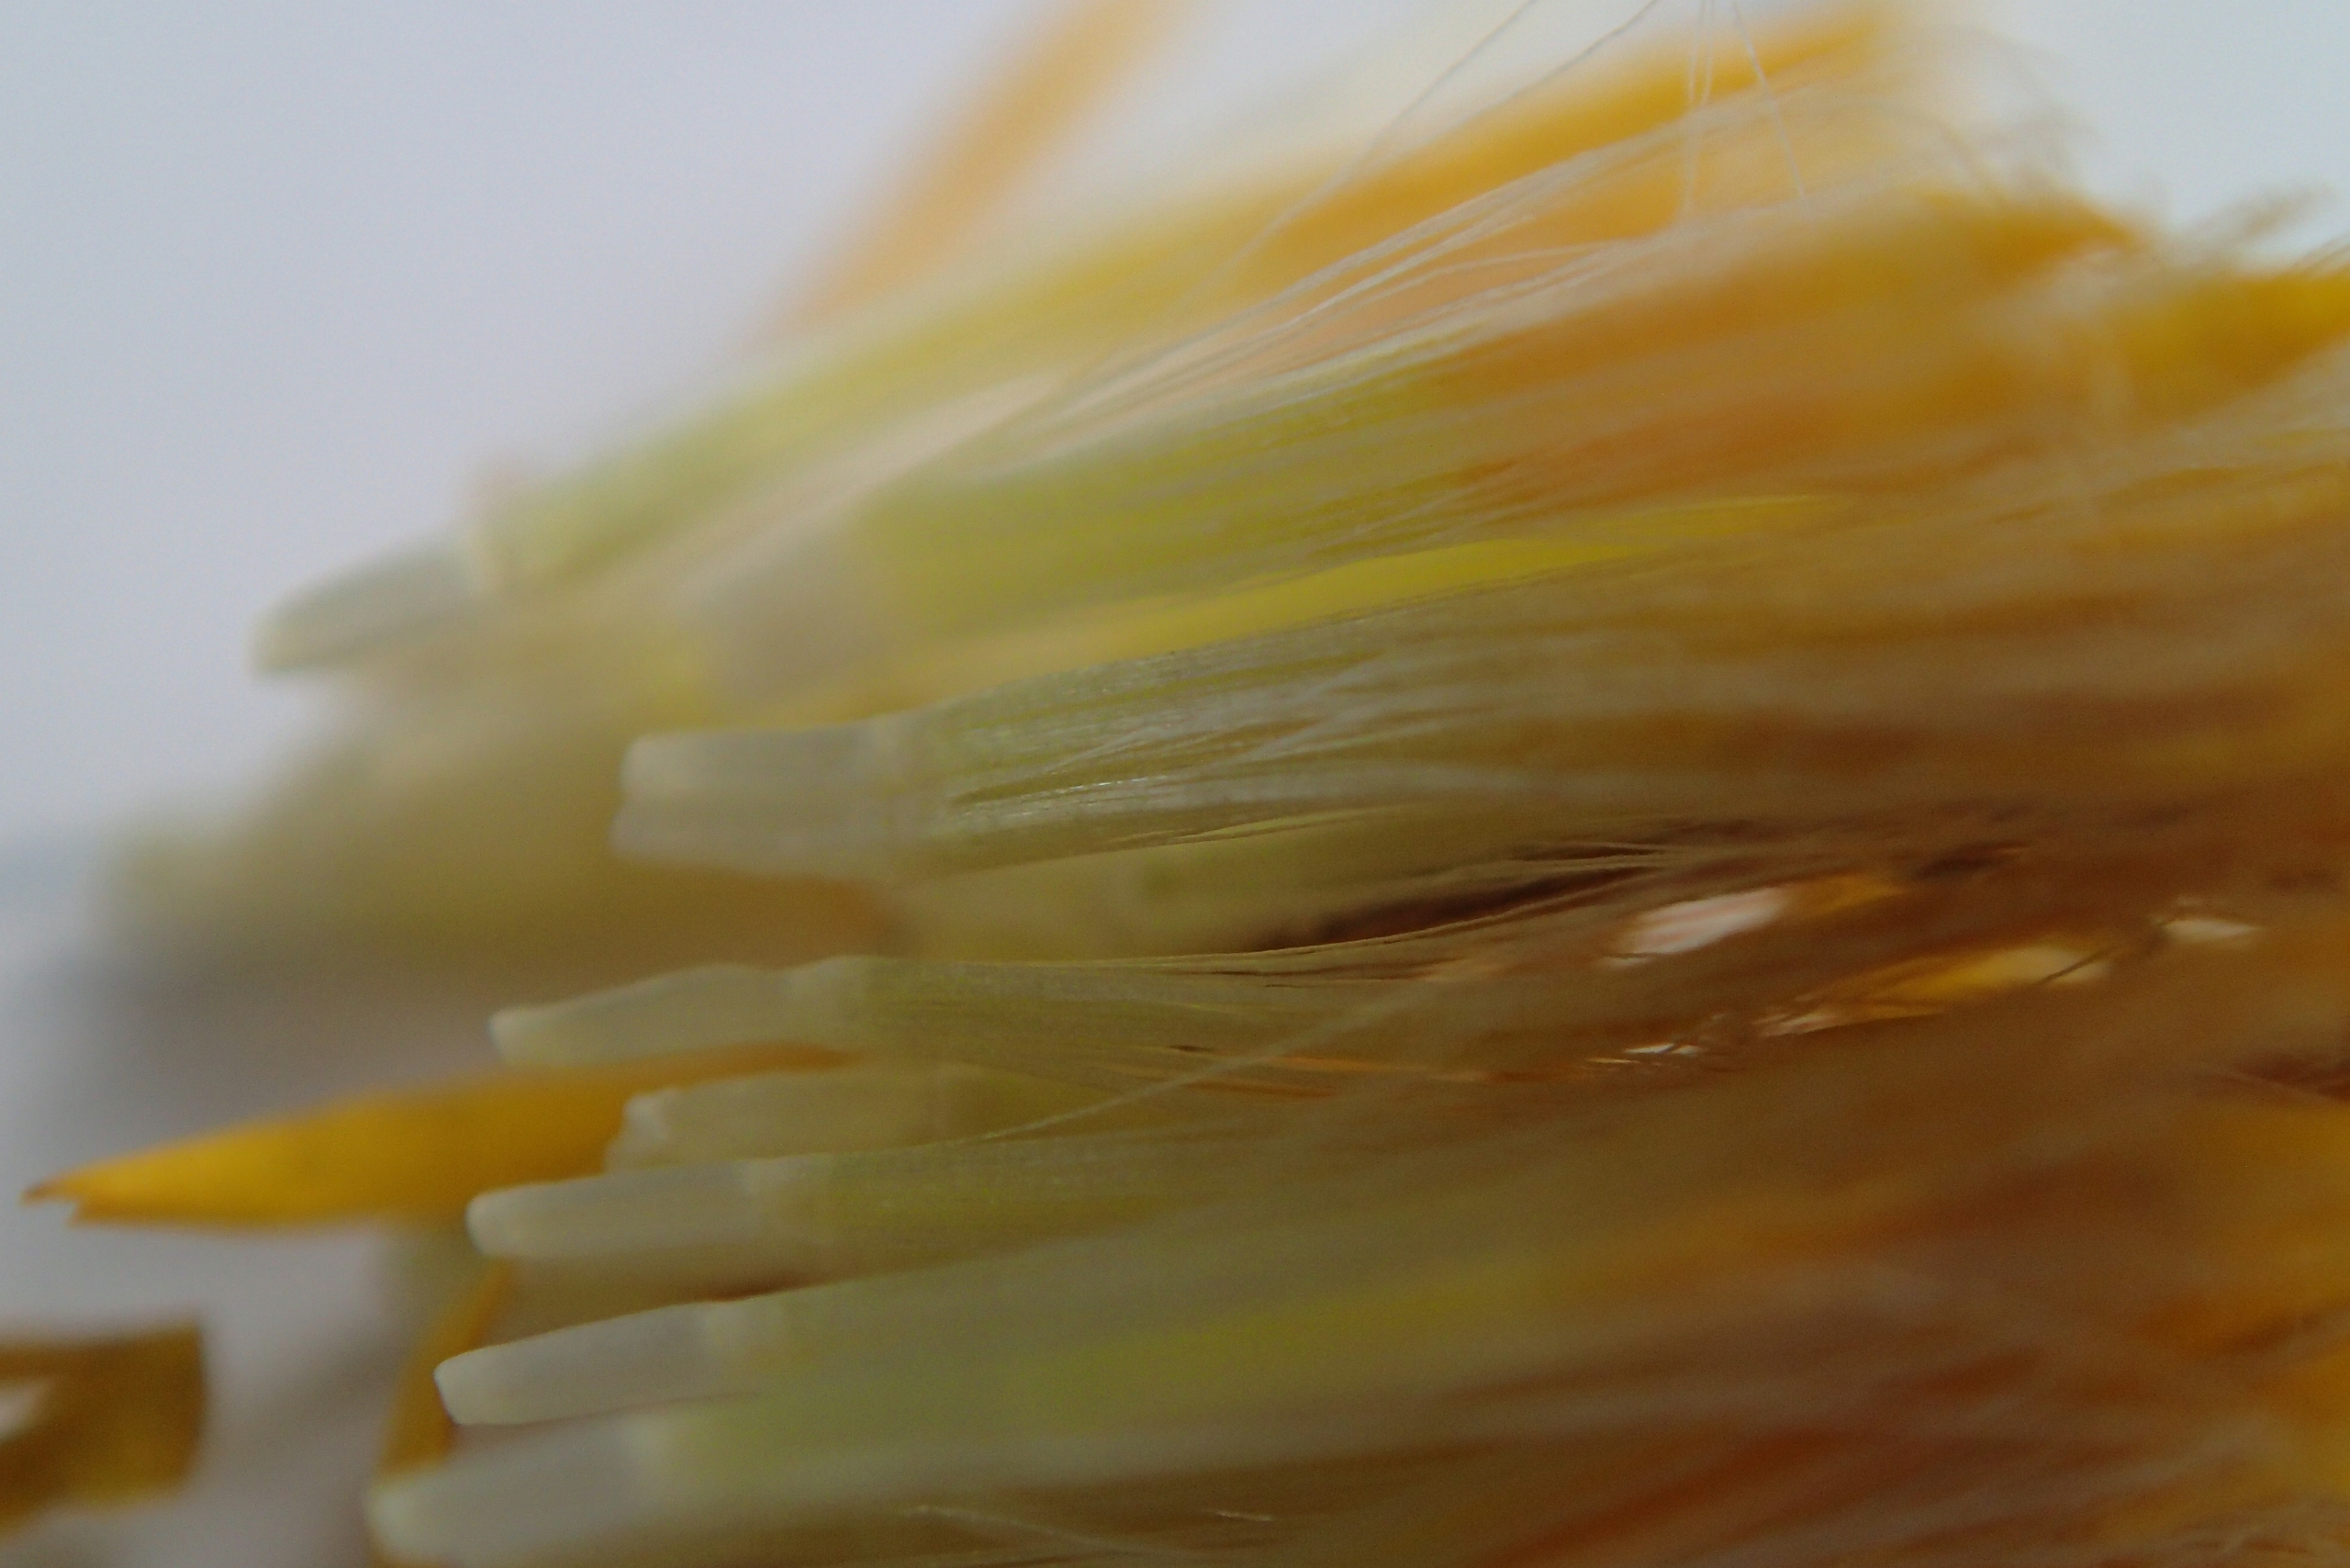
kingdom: Plantae
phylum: Tracheophyta
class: Magnoliopsida
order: Asterales
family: Asteraceae
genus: Pentanema
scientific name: Pentanema salicinum
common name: Pile-alant
